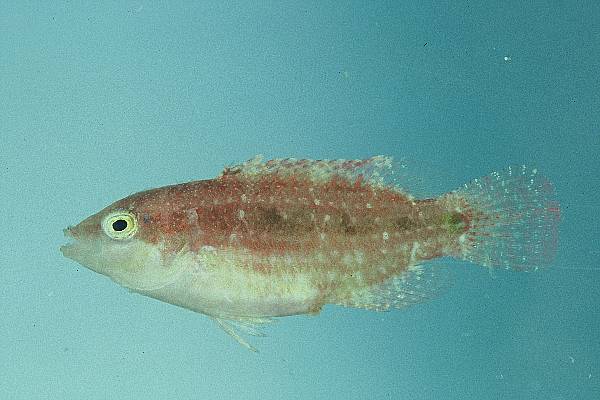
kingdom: Animalia
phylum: Chordata
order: Perciformes
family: Labridae
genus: Oxycheilinus
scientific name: Oxycheilinus bimaculatus
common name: Comettailed wrasse
